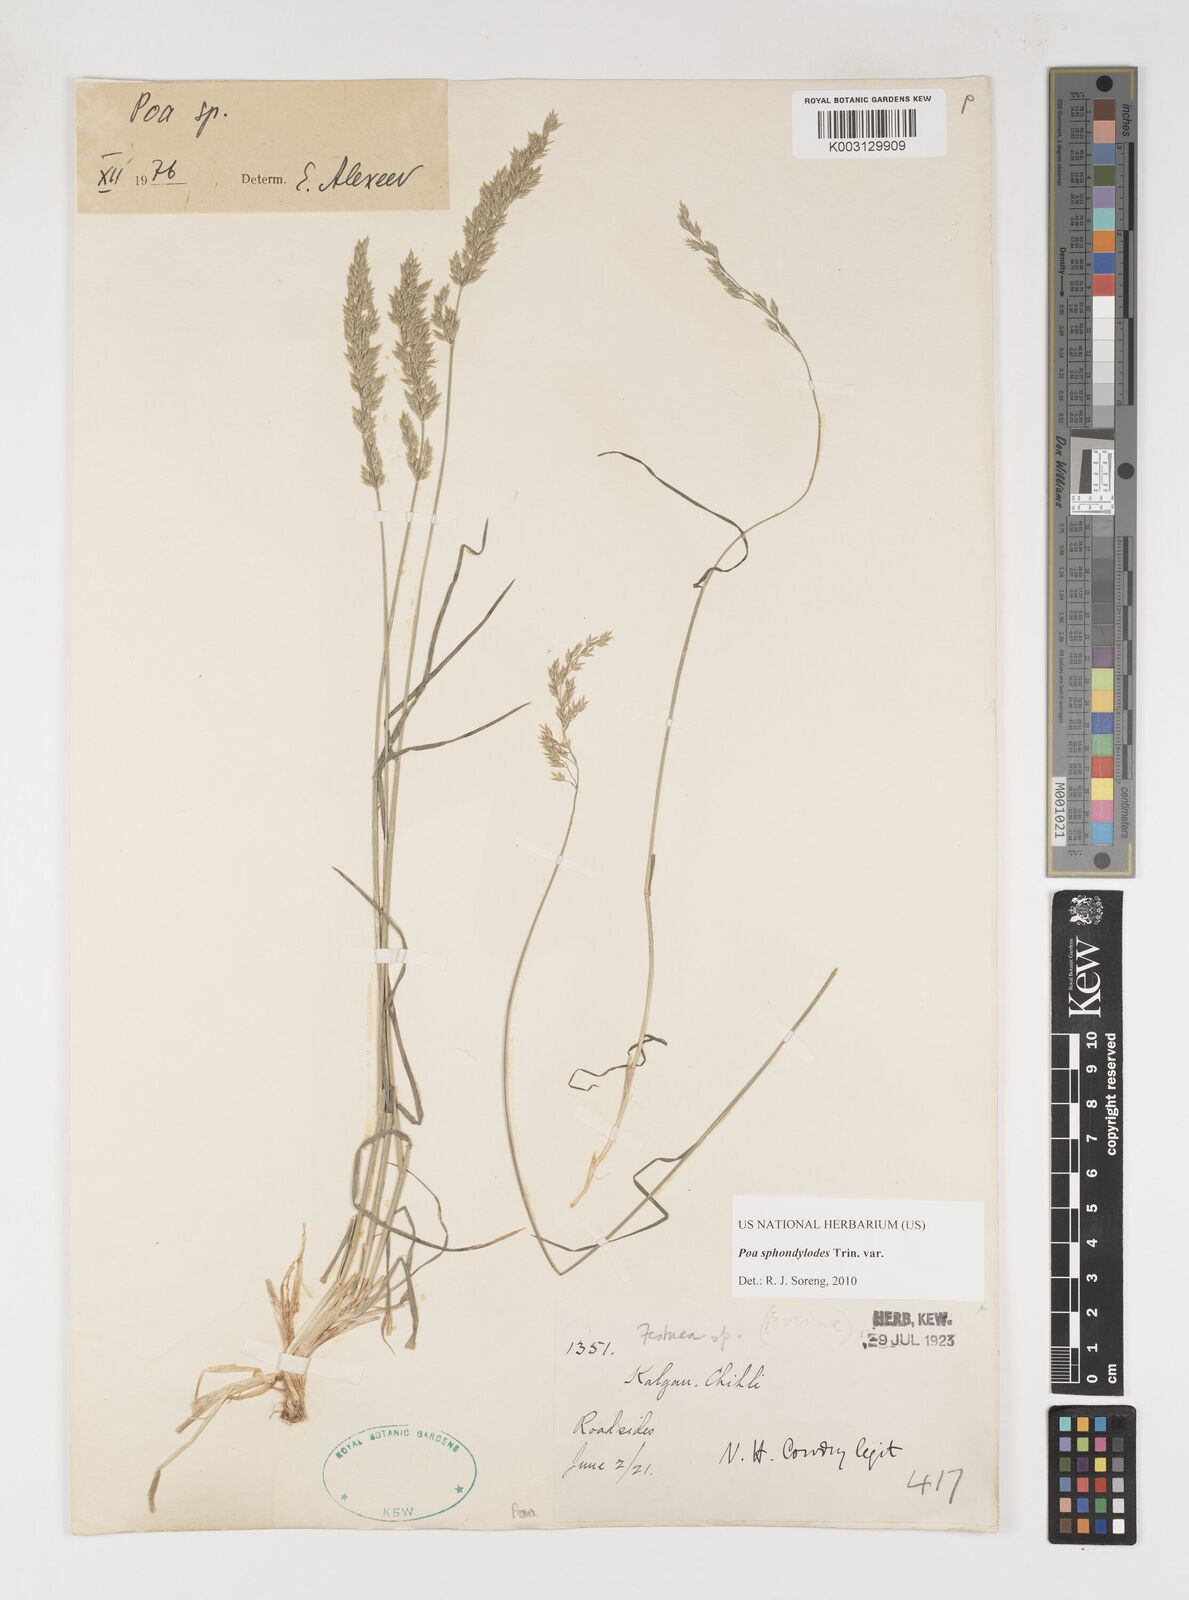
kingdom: Plantae
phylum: Tracheophyta
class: Liliopsida
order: Poales
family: Poaceae
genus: Poa
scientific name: Poa sphondylodes
